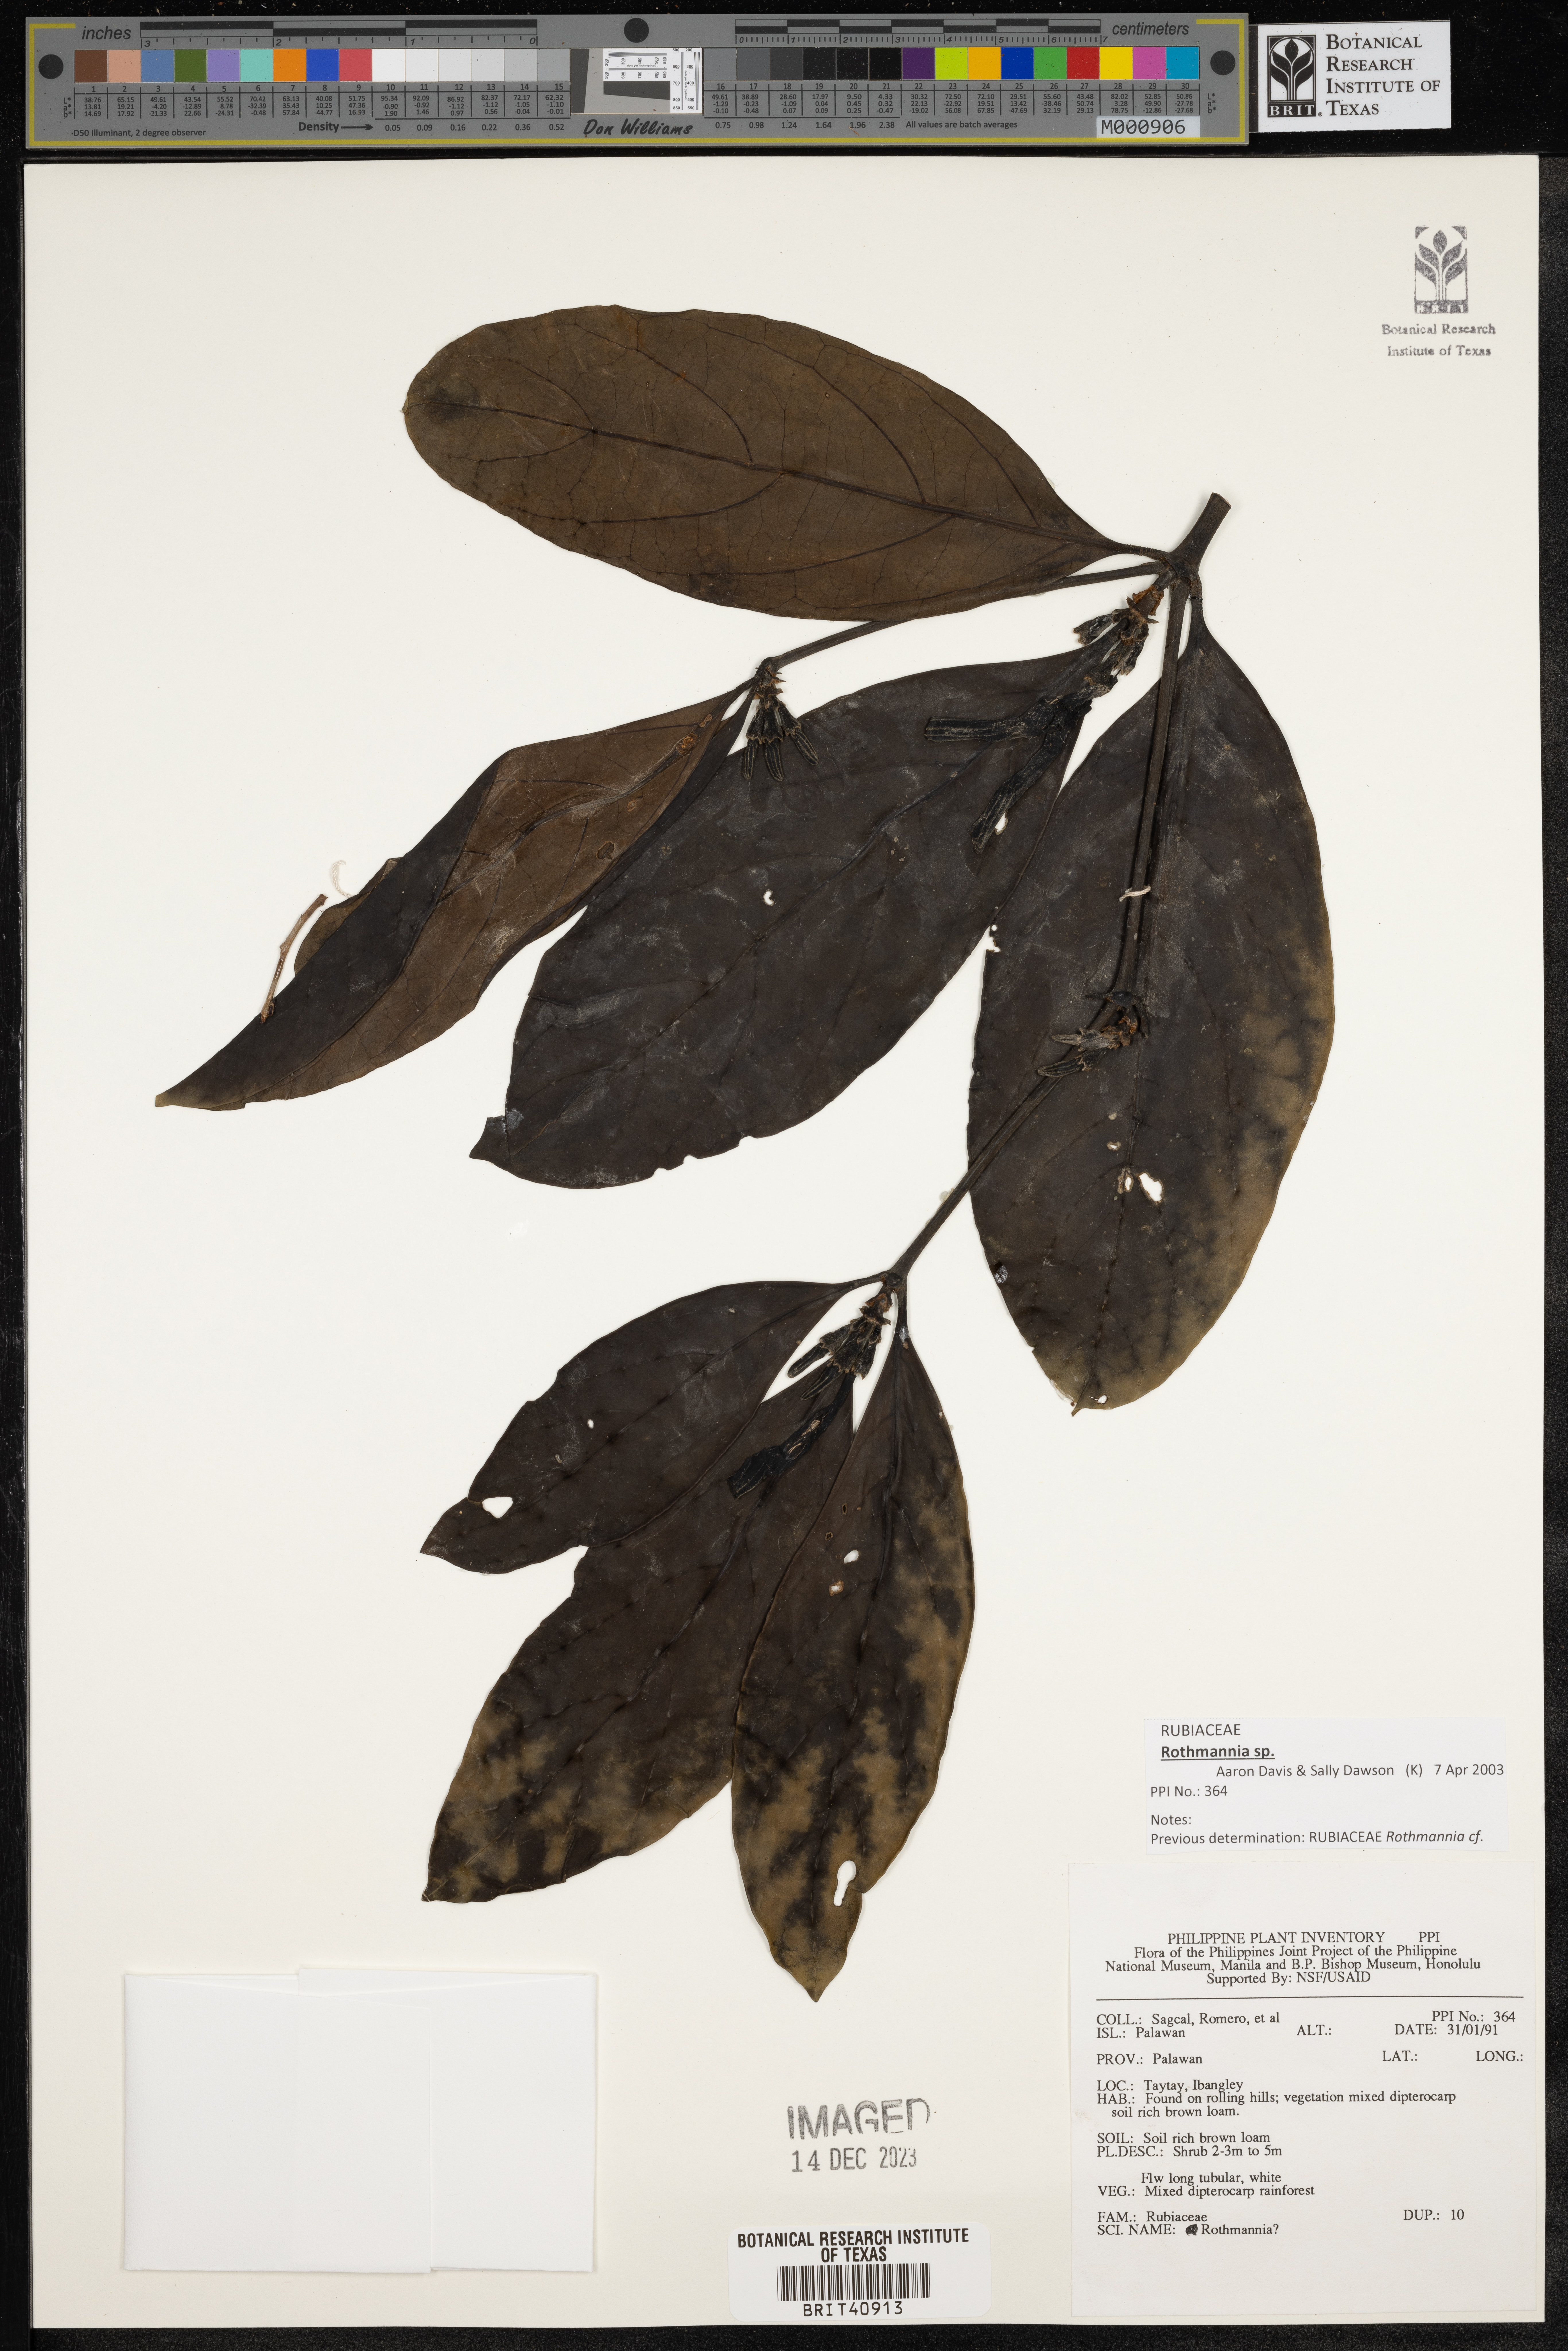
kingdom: Plantae
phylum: Tracheophyta
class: Magnoliopsida
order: Gentianales
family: Rubiaceae
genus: Rothmannia
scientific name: Rothmannia
